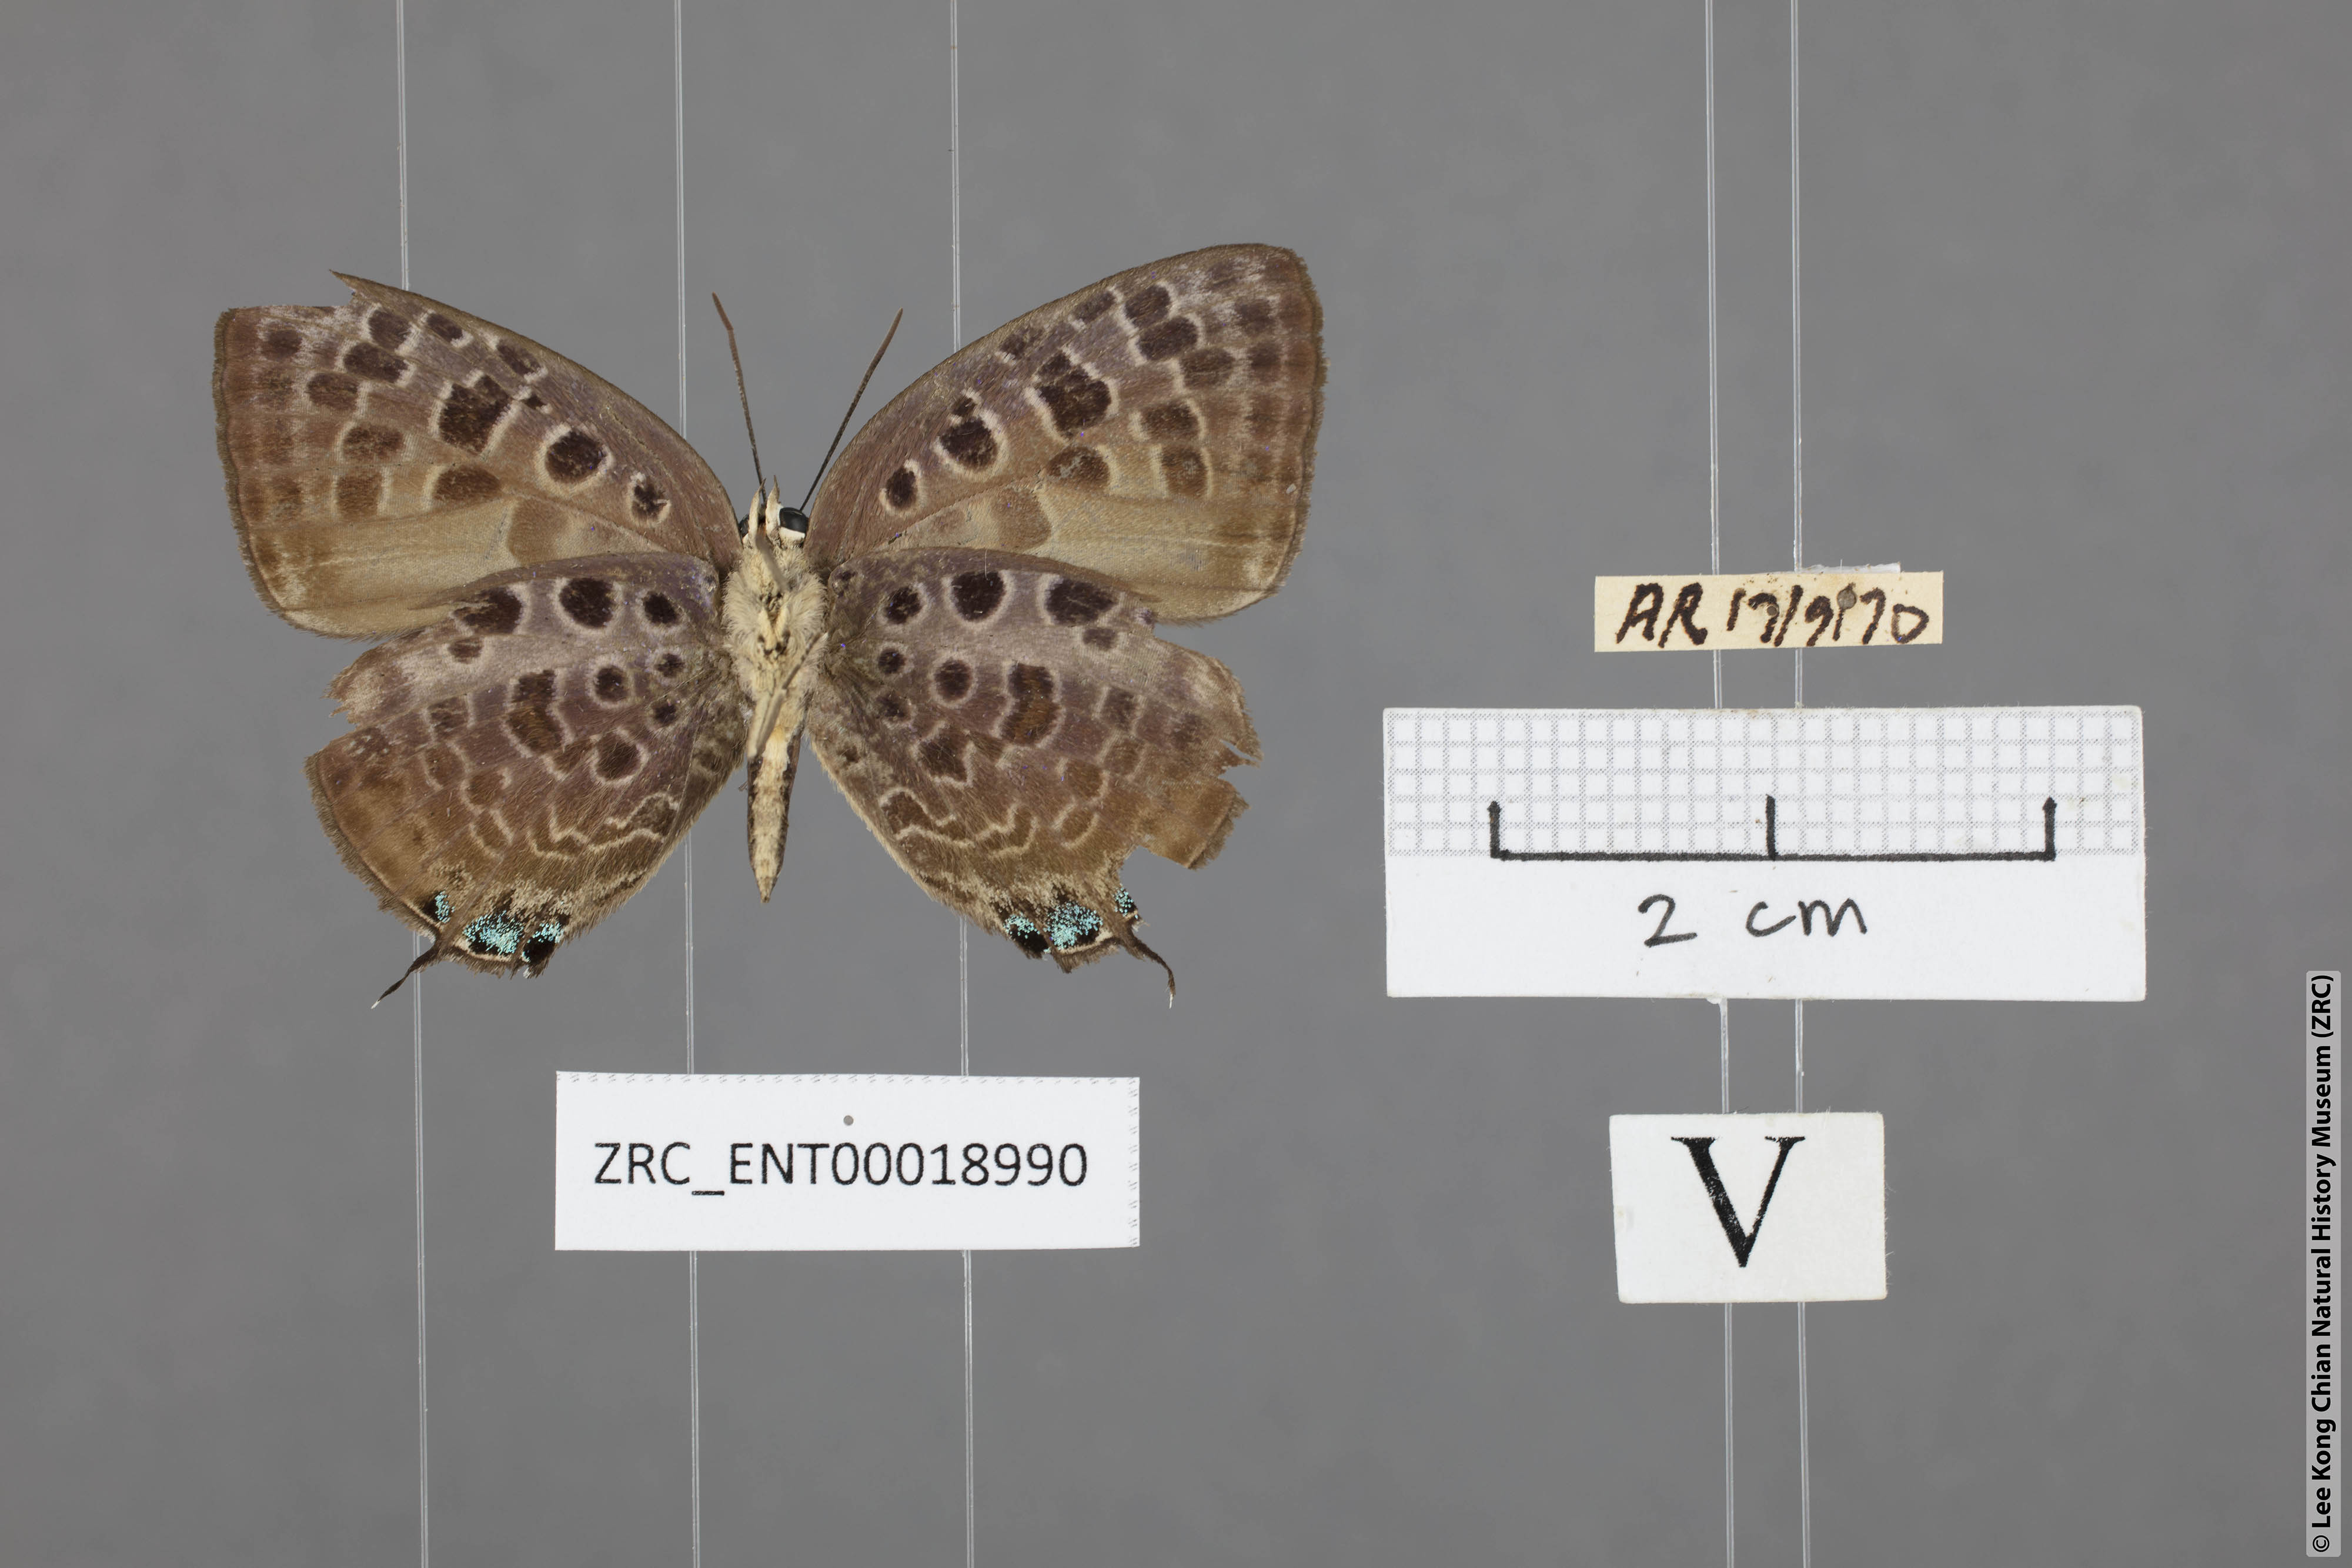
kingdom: Animalia
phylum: Arthropoda
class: Insecta
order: Lepidoptera
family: Lycaenidae
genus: Arhopala
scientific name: Arhopala achelous
